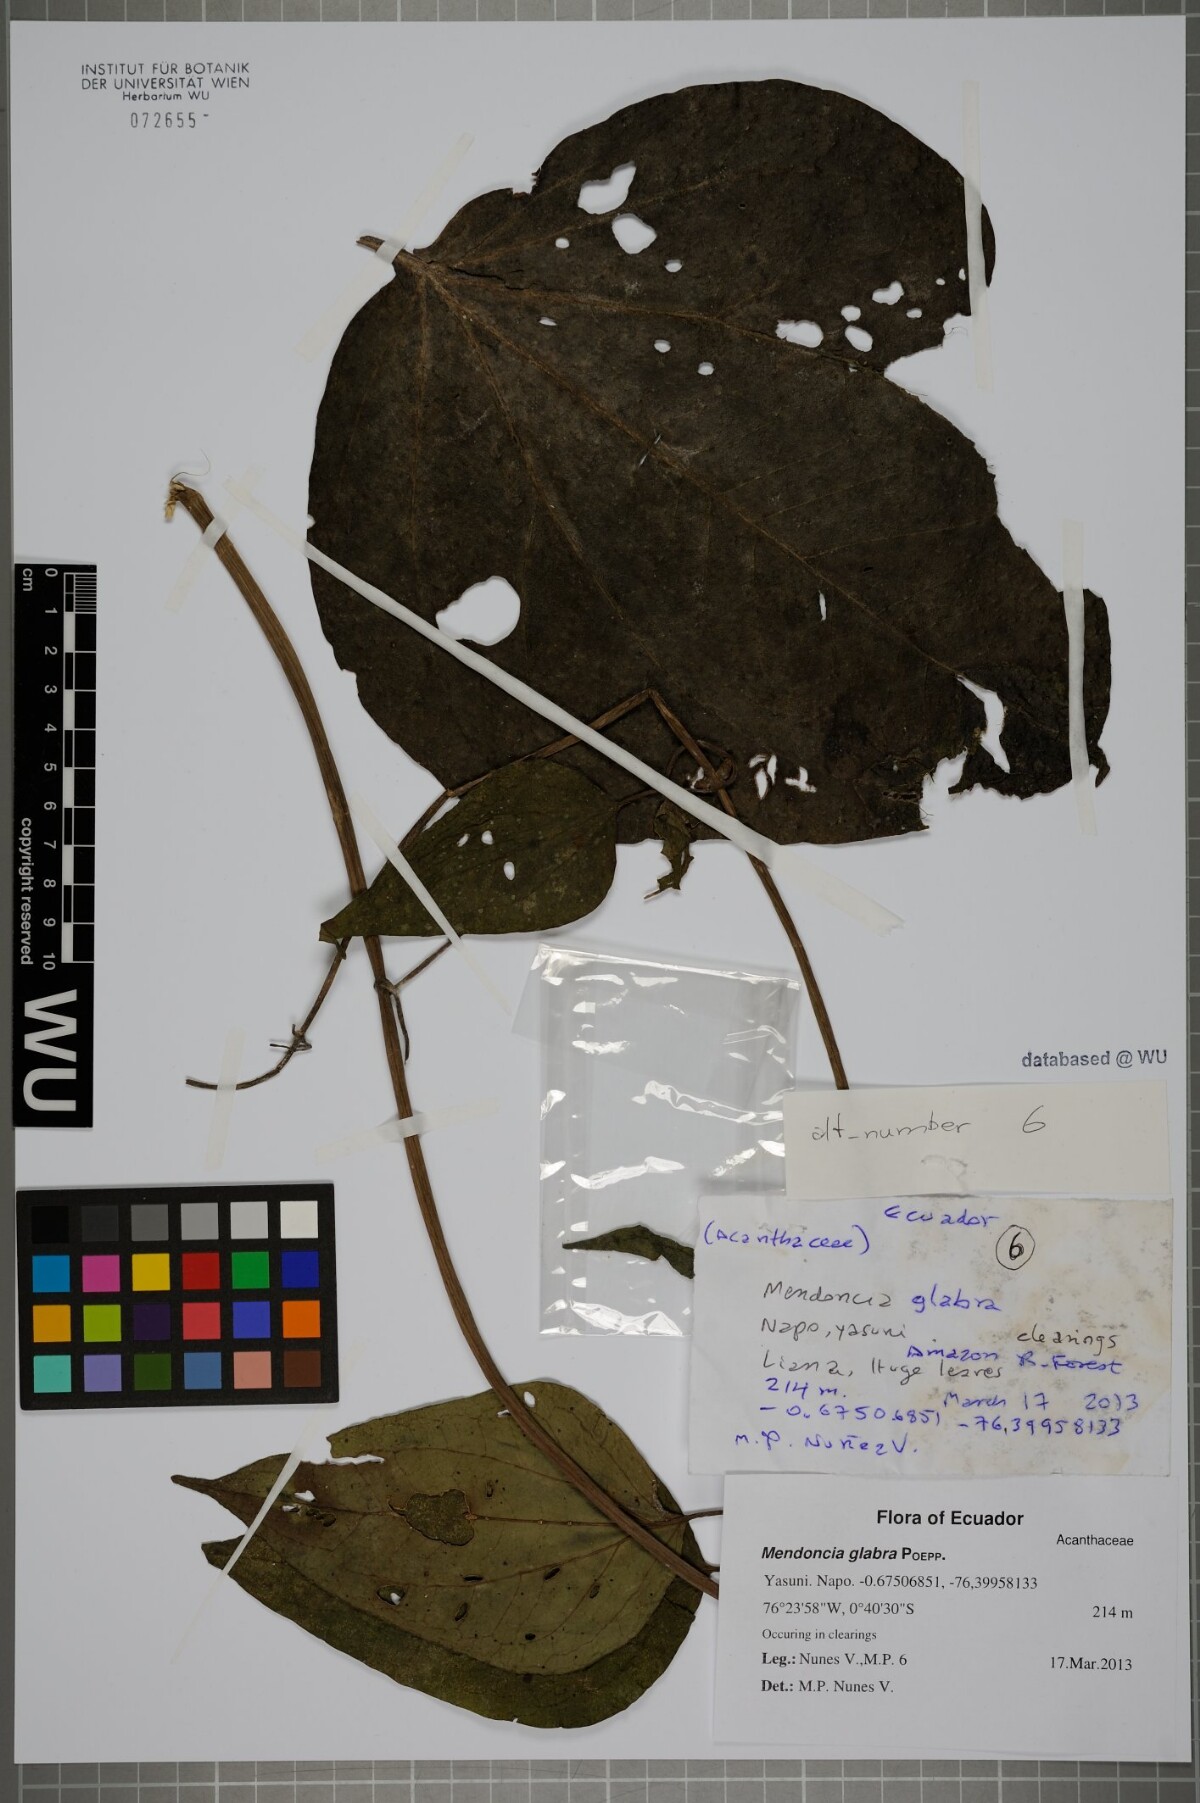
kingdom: Plantae
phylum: Tracheophyta
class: Magnoliopsida
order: Lamiales
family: Acanthaceae
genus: Mendoncia
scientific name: Mendoncia glabra
